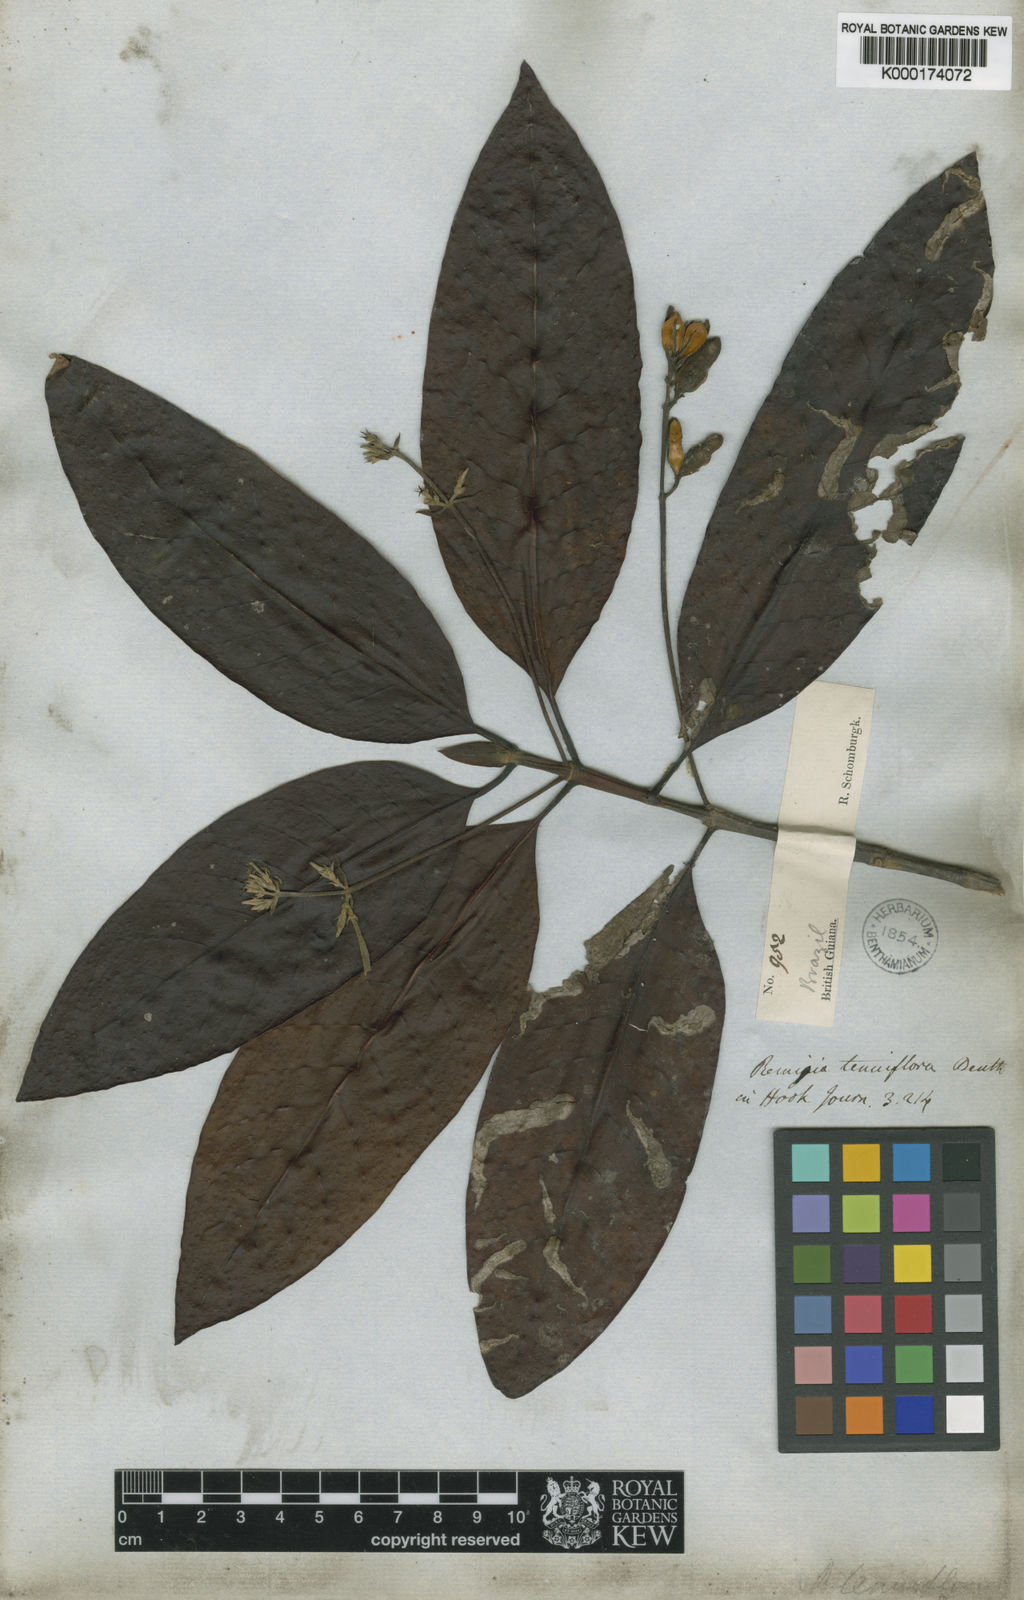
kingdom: Plantae
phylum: Tracheophyta
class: Magnoliopsida
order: Gentianales
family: Rubiaceae
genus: Remijia
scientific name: Remijia tenuiflora
